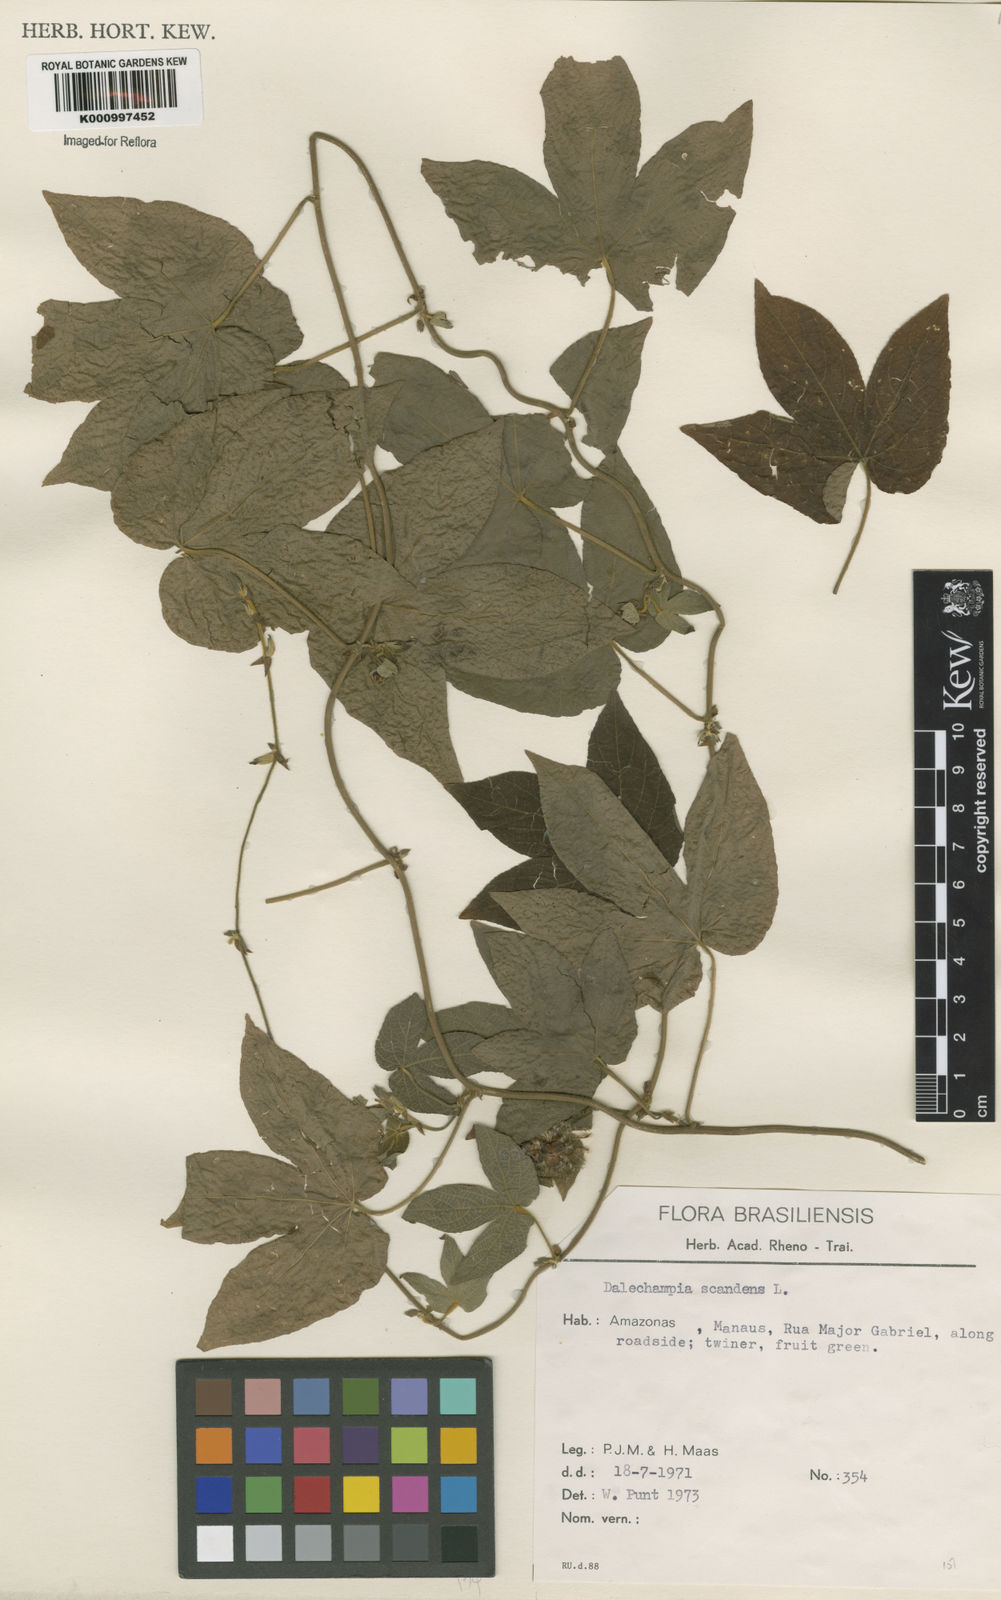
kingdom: Plantae
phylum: Tracheophyta
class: Magnoliopsida
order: Malpighiales
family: Euphorbiaceae
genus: Dalechampia
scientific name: Dalechampia scandens
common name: Spurgecreeper
